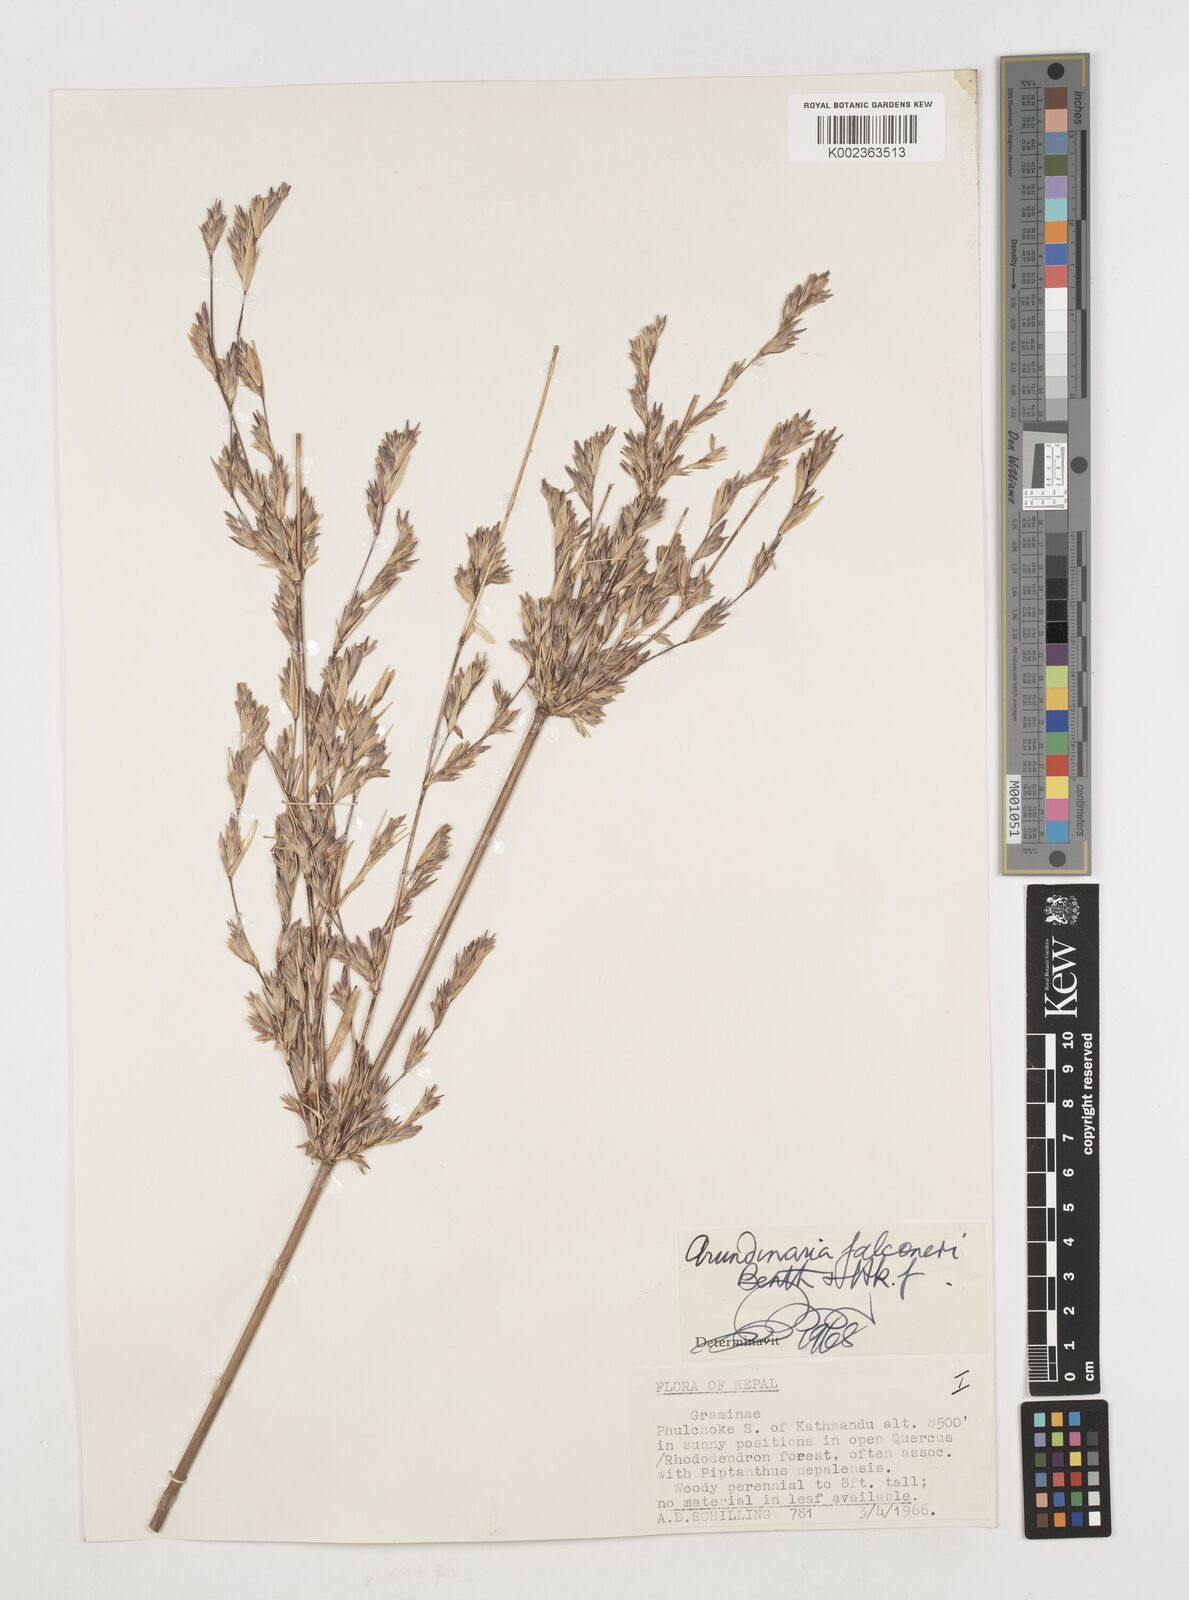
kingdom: Plantae
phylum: Tracheophyta
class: Liliopsida
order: Poales
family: Poaceae
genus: Himalayacalamus
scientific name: Himalayacalamus falconeri
